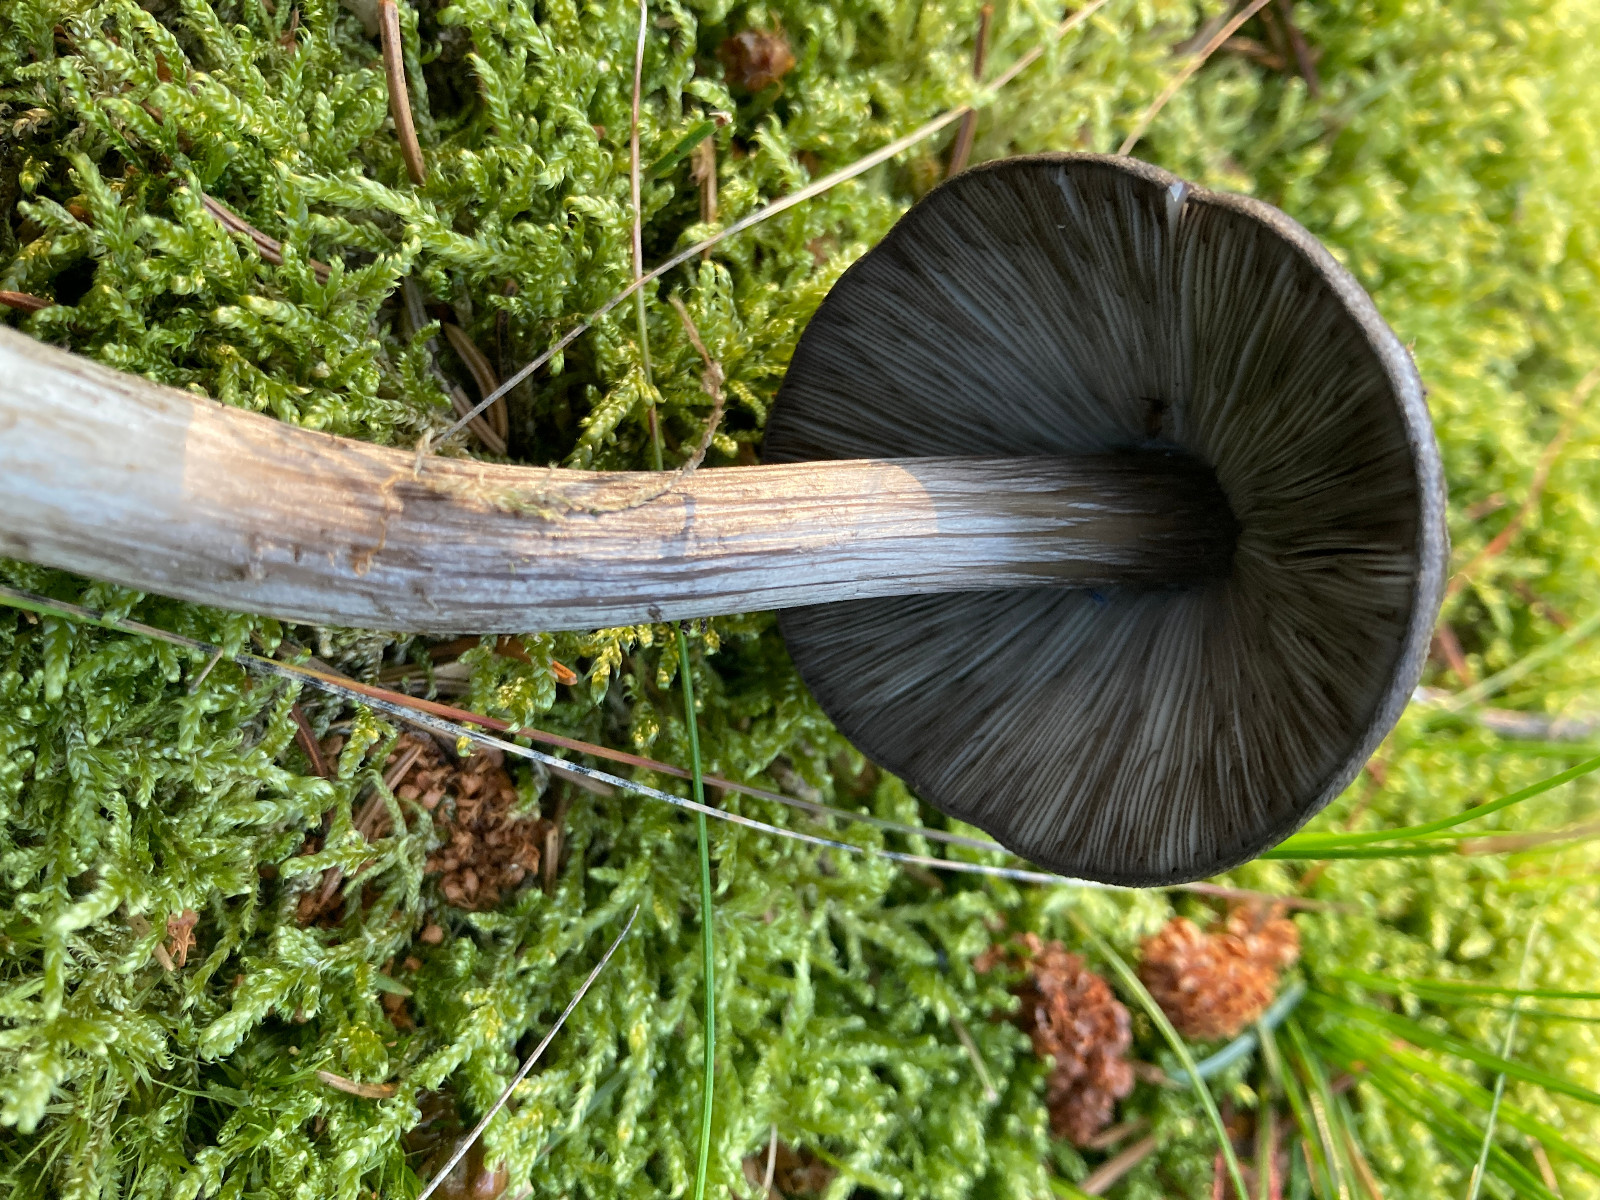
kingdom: Fungi
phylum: Basidiomycota
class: Agaricomycetes
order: Agaricales
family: Pluteaceae
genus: Pluteus
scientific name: Pluteus cervinus
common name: sodfarvet skærmhat
